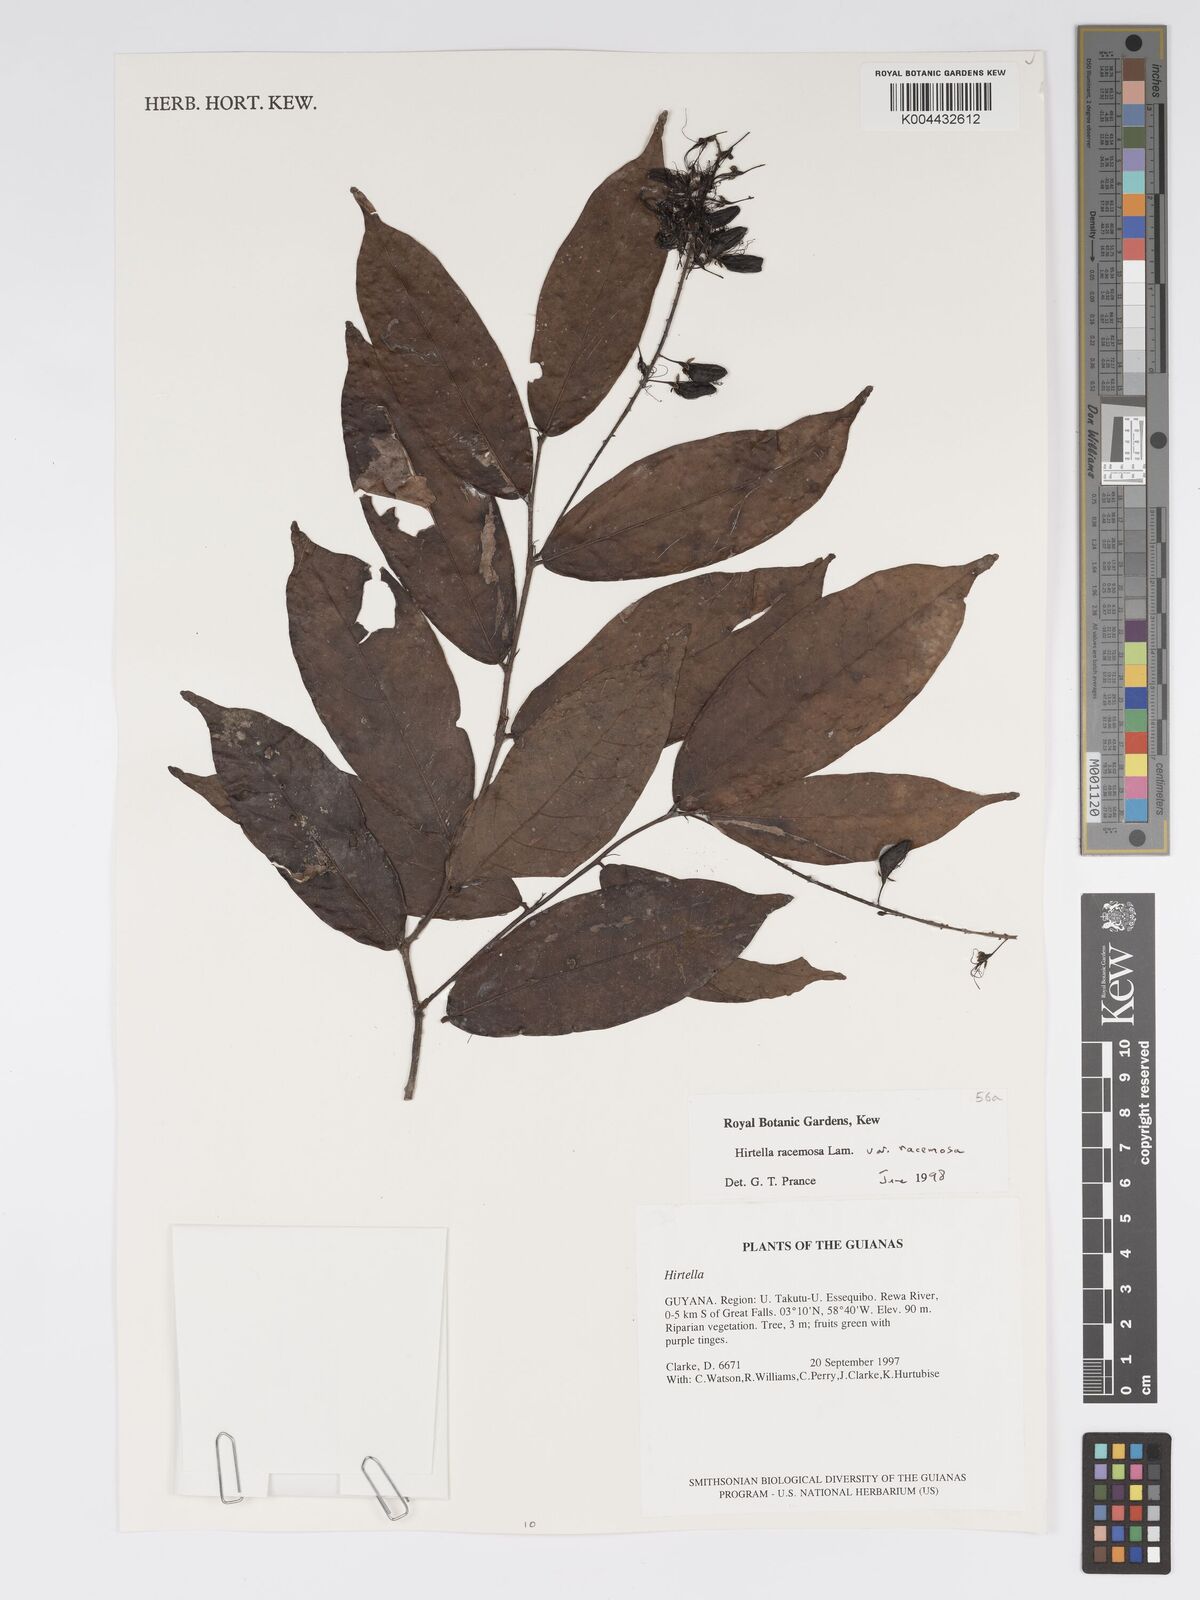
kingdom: Plantae
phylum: Tracheophyta
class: Magnoliopsida
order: Malpighiales
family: Chrysobalanaceae
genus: Hirtella
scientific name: Hirtella racemosa
